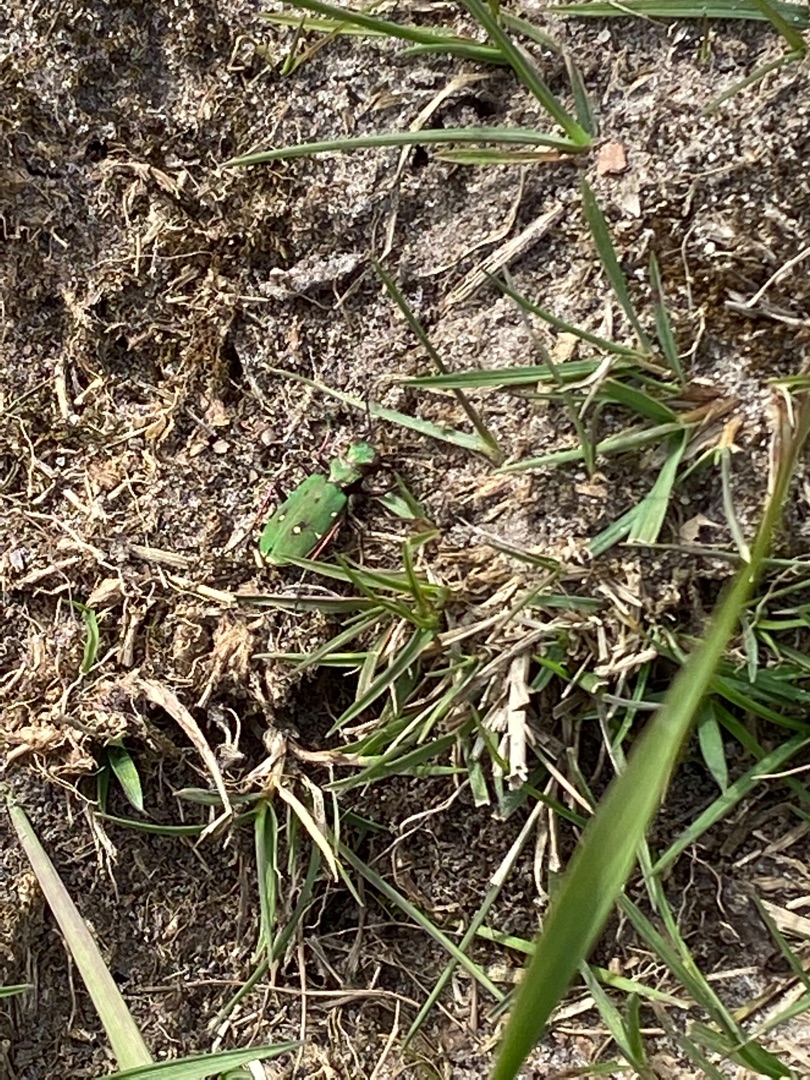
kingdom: Animalia
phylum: Arthropoda
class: Insecta
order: Coleoptera
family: Carabidae
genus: Cicindela
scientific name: Cicindela campestris
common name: Grøn sandspringer
